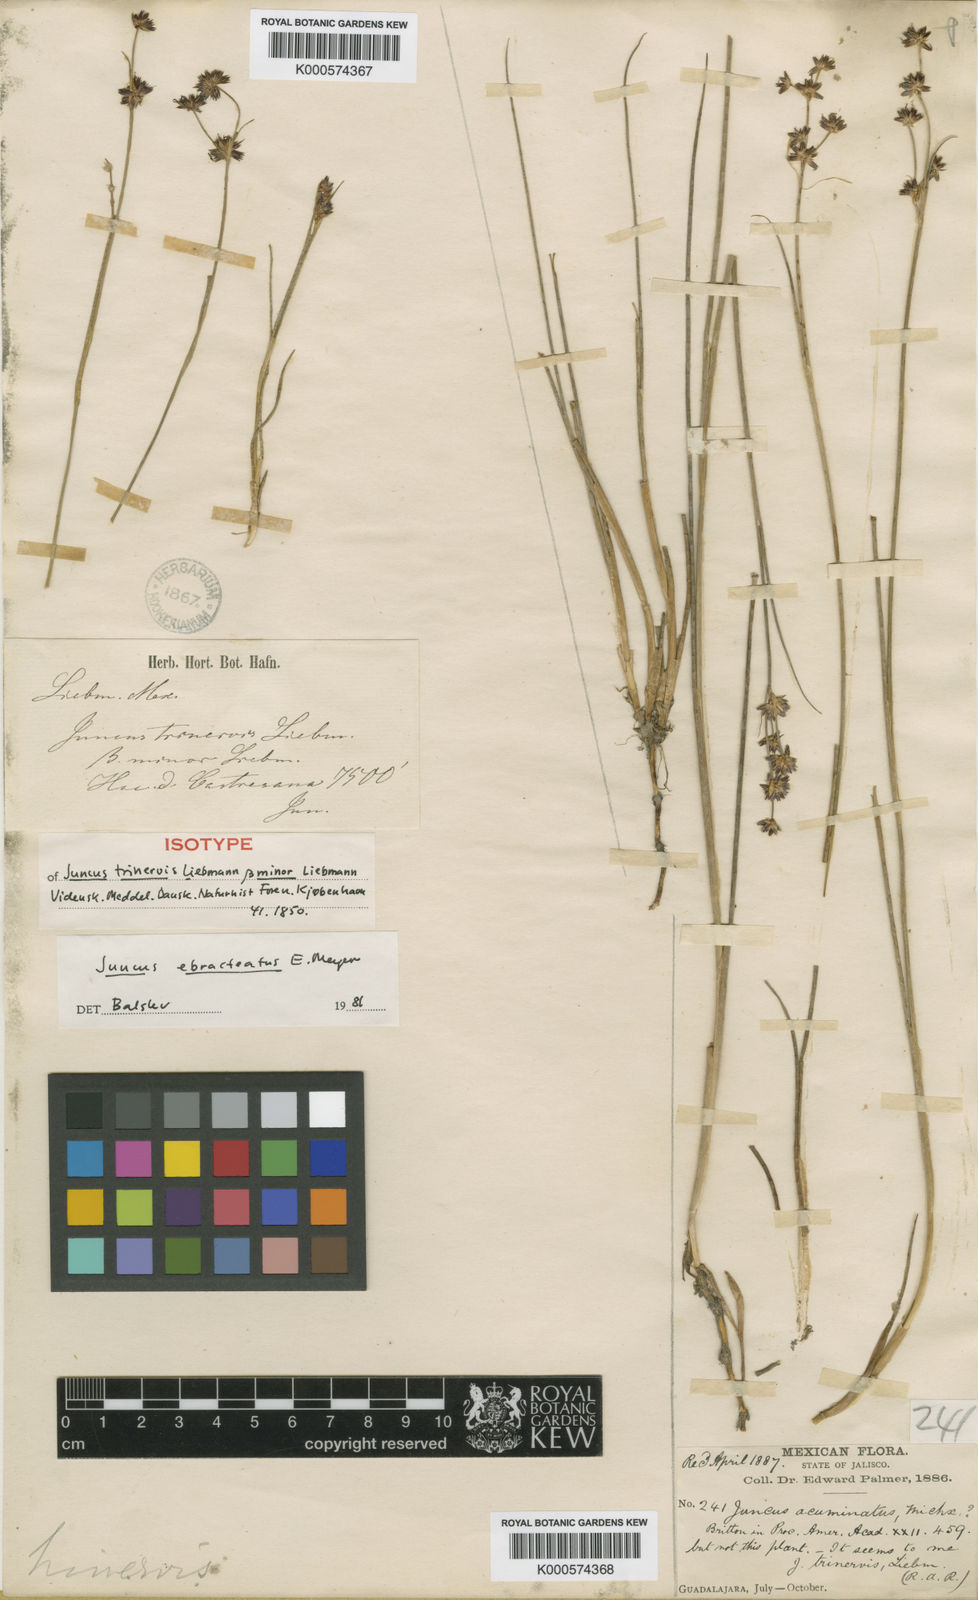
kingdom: Plantae
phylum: Tracheophyta
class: Liliopsida
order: Poales
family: Juncaceae
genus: Juncus
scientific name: Juncus ebracteatus
